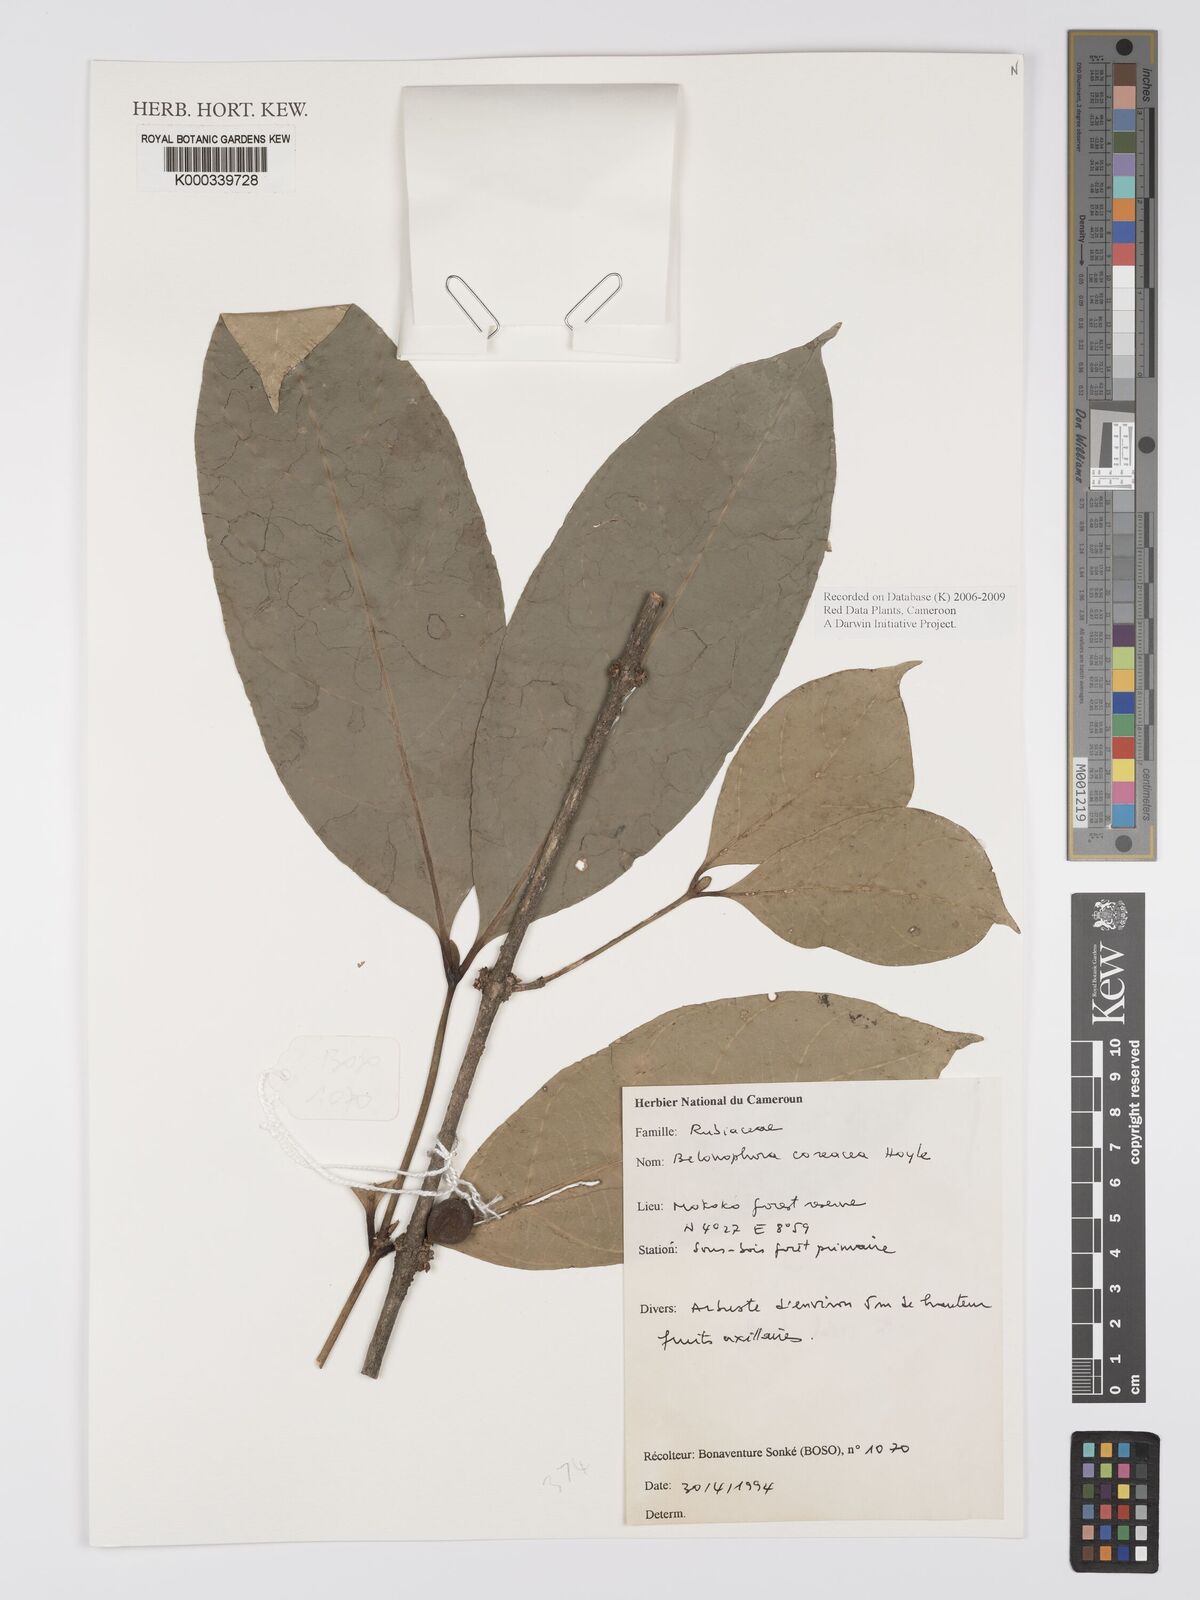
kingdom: Plantae
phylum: Tracheophyta
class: Magnoliopsida
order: Gentianales
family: Rubiaceae
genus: Belonophora
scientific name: Belonophora coriacea
